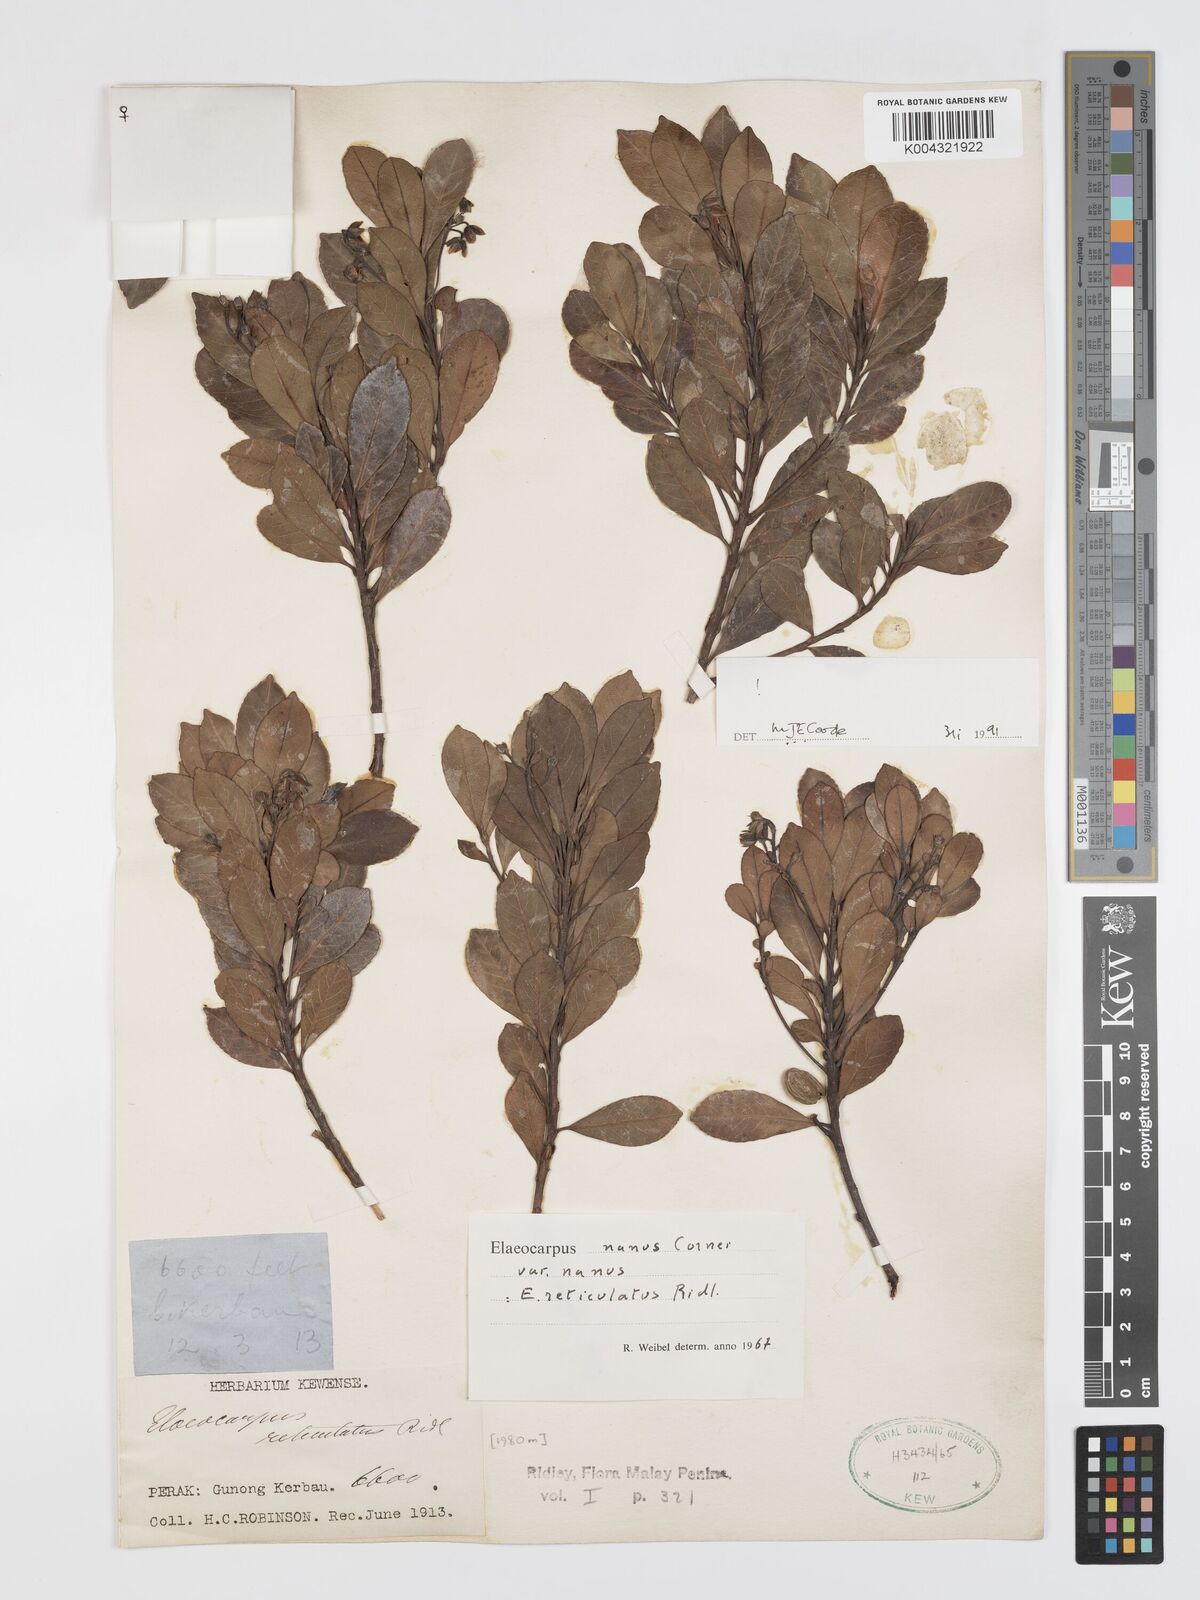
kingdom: Plantae
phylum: Tracheophyta
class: Magnoliopsida
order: Oxalidales
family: Elaeocarpaceae
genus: Elaeocarpus
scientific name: Elaeocarpus nanus
